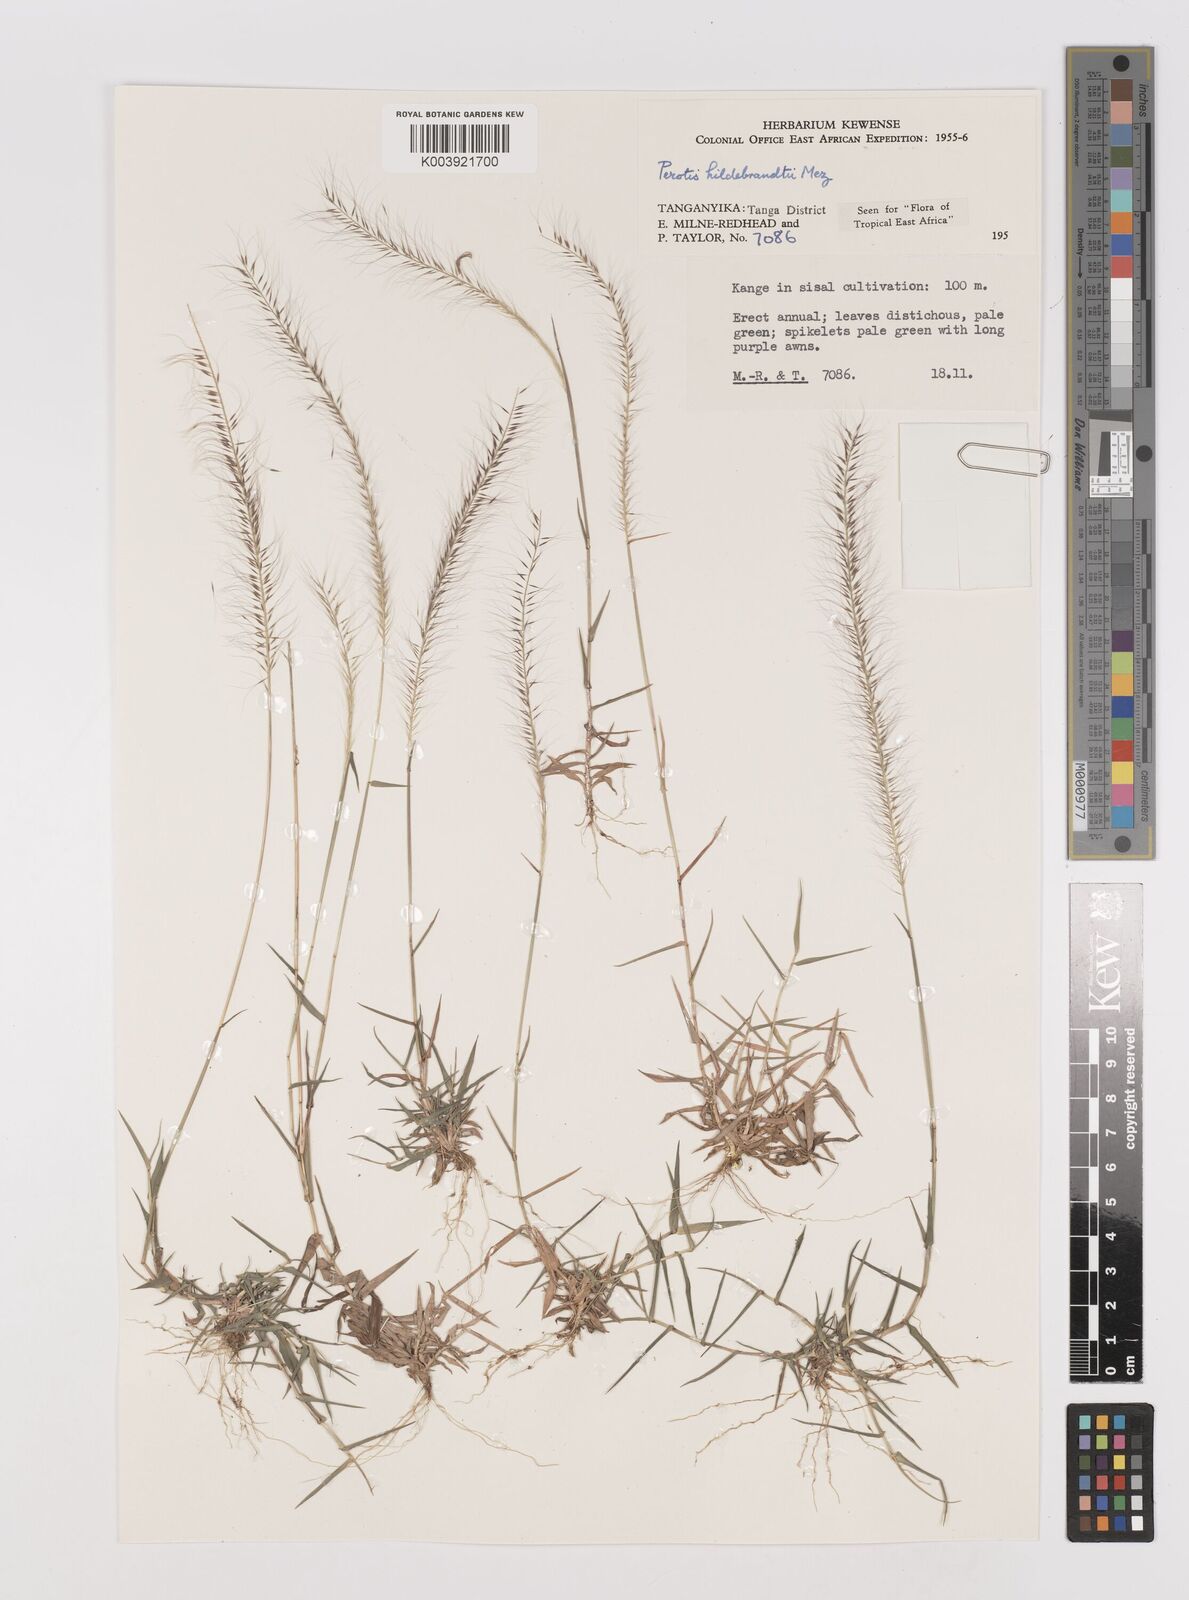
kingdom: Plantae
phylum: Tracheophyta
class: Liliopsida
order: Poales
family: Poaceae
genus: Perotis
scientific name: Perotis hildebrandtii
